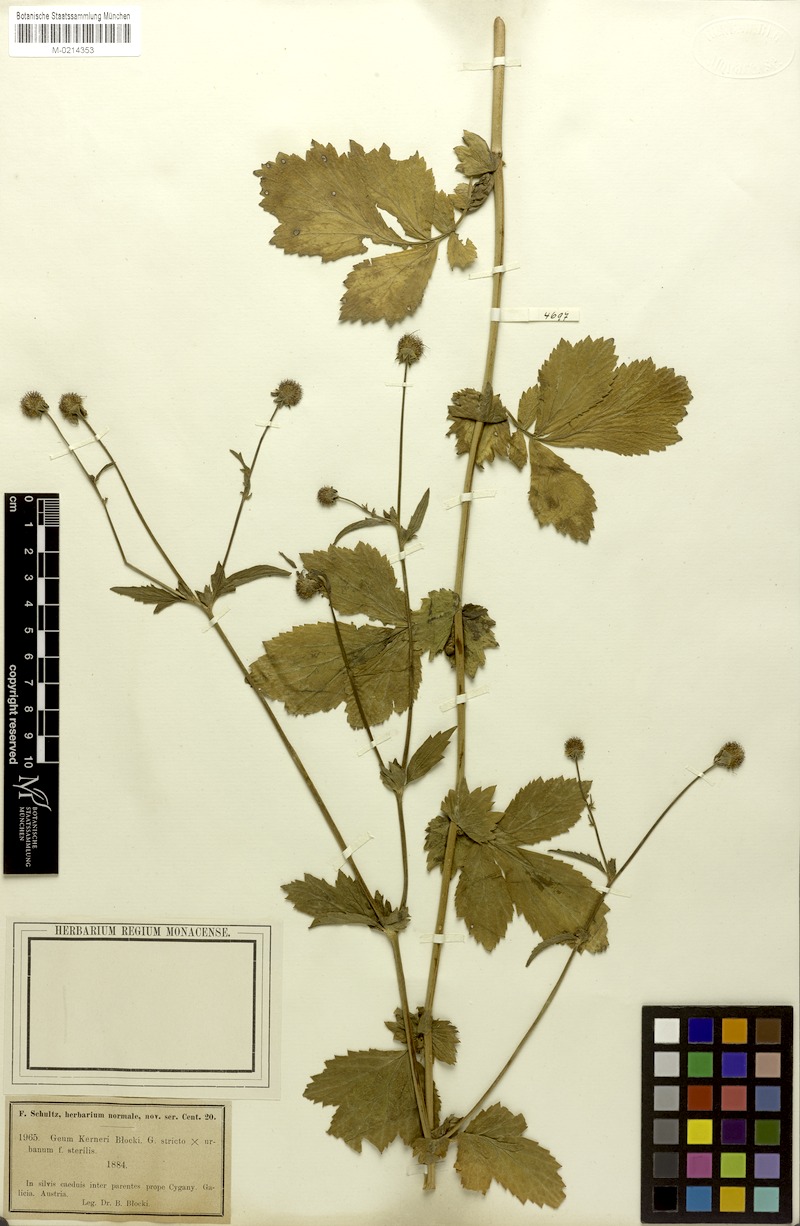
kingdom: Plantae
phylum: Tracheophyta
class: Magnoliopsida
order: Rosales
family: Rosaceae
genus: Geum
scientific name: Geum kerneri
